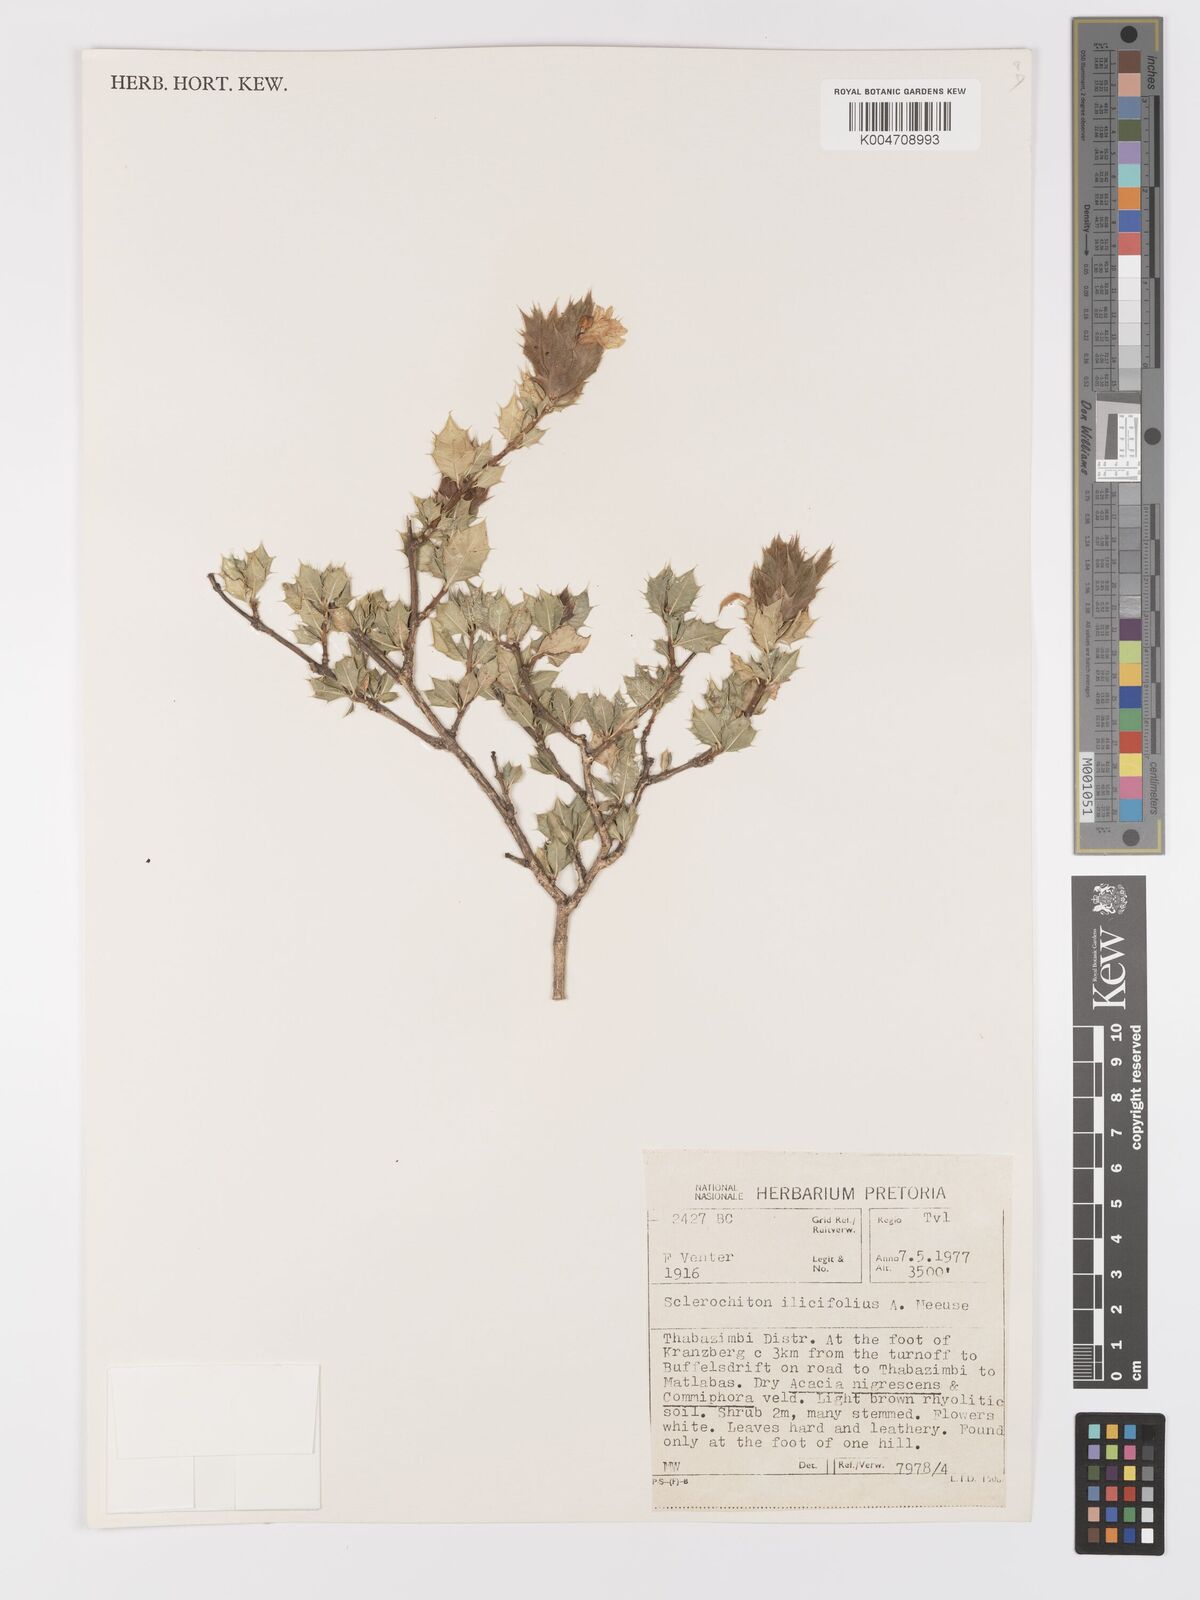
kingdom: Plantae
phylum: Tracheophyta
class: Magnoliopsida
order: Lamiales
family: Acanthaceae
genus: Sclerochiton
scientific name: Sclerochiton ilicifolius
